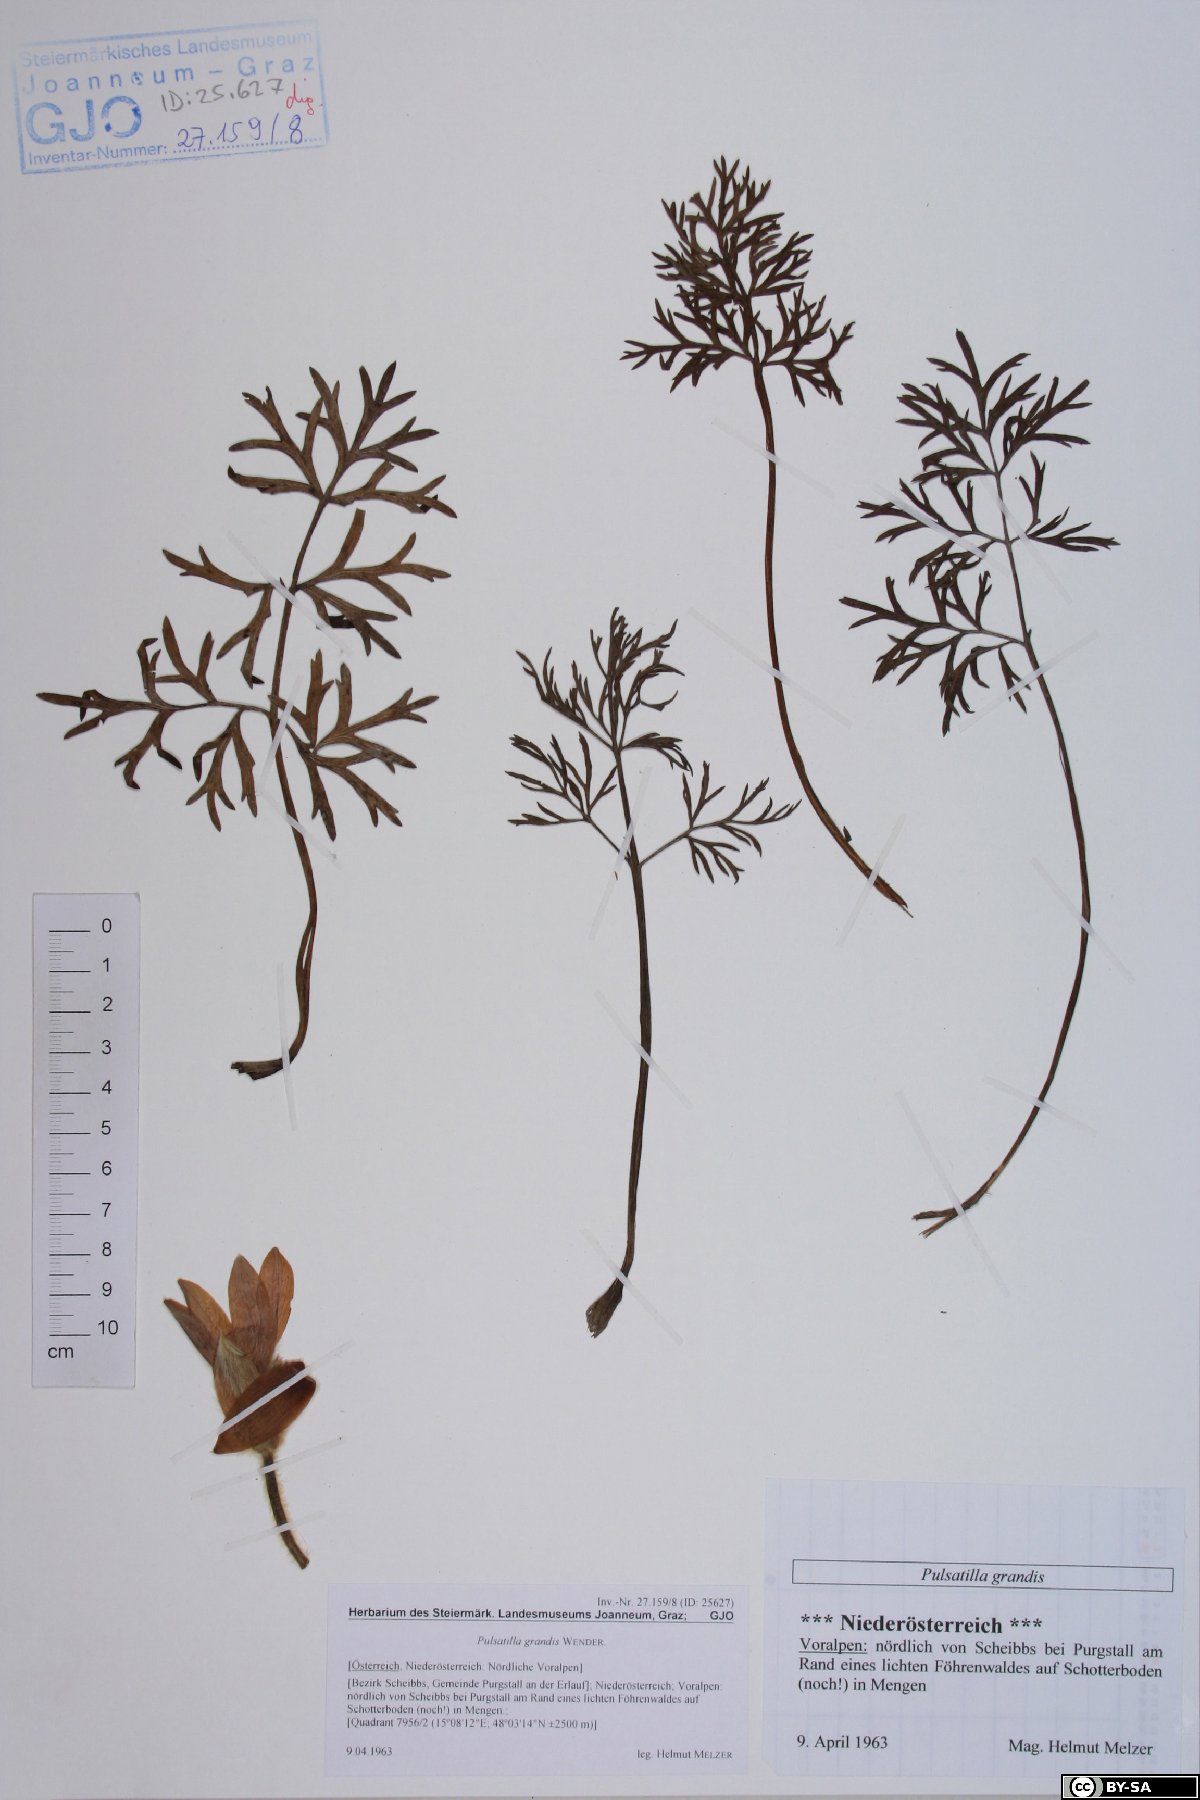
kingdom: Plantae
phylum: Tracheophyta
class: Magnoliopsida
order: Ranunculales
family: Ranunculaceae
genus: Pulsatilla
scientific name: Pulsatilla grandis
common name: Greater pasque flower
